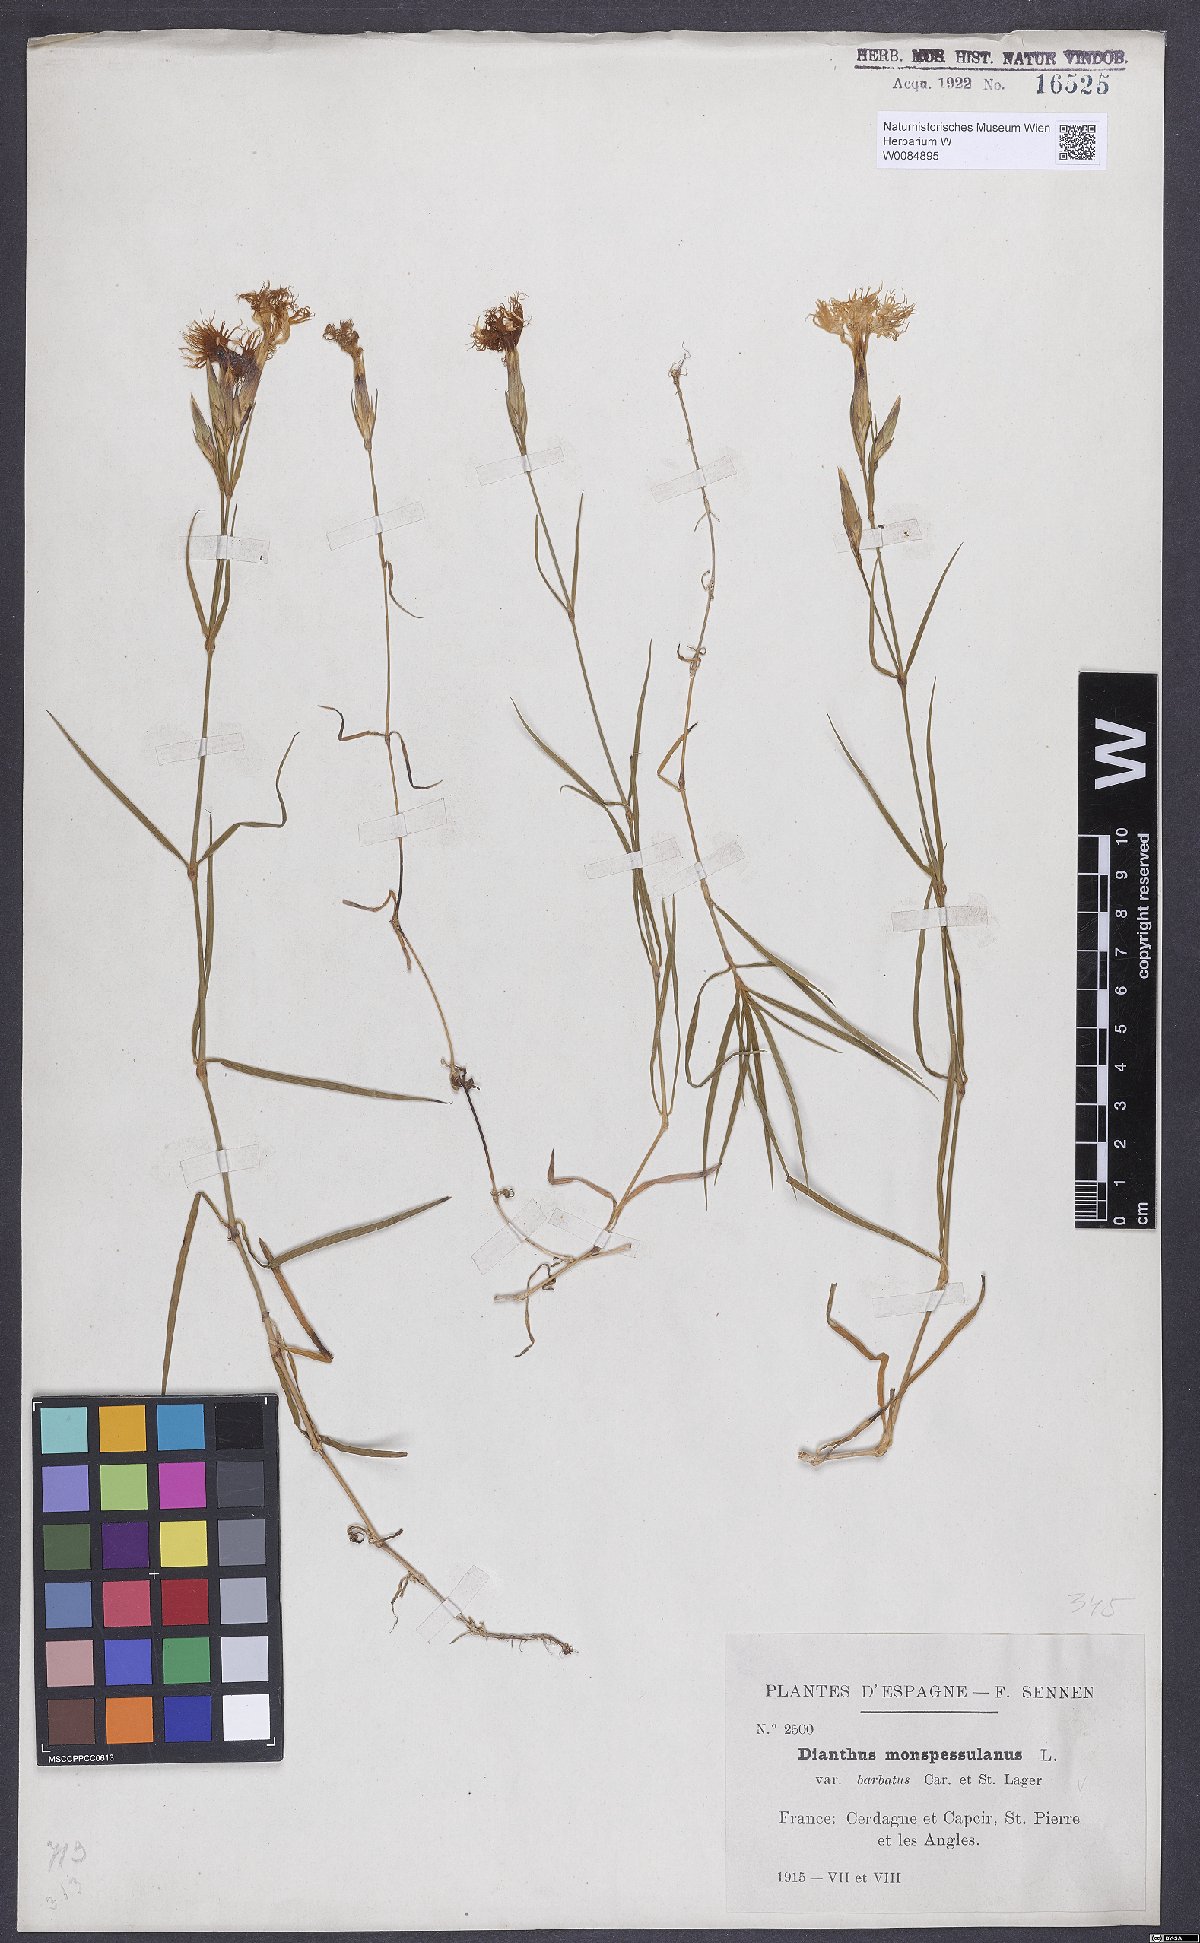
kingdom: Plantae
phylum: Tracheophyta
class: Magnoliopsida
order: Caryophyllales
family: Caryophyllaceae
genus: Dianthus
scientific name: Dianthus hyssopifolius
